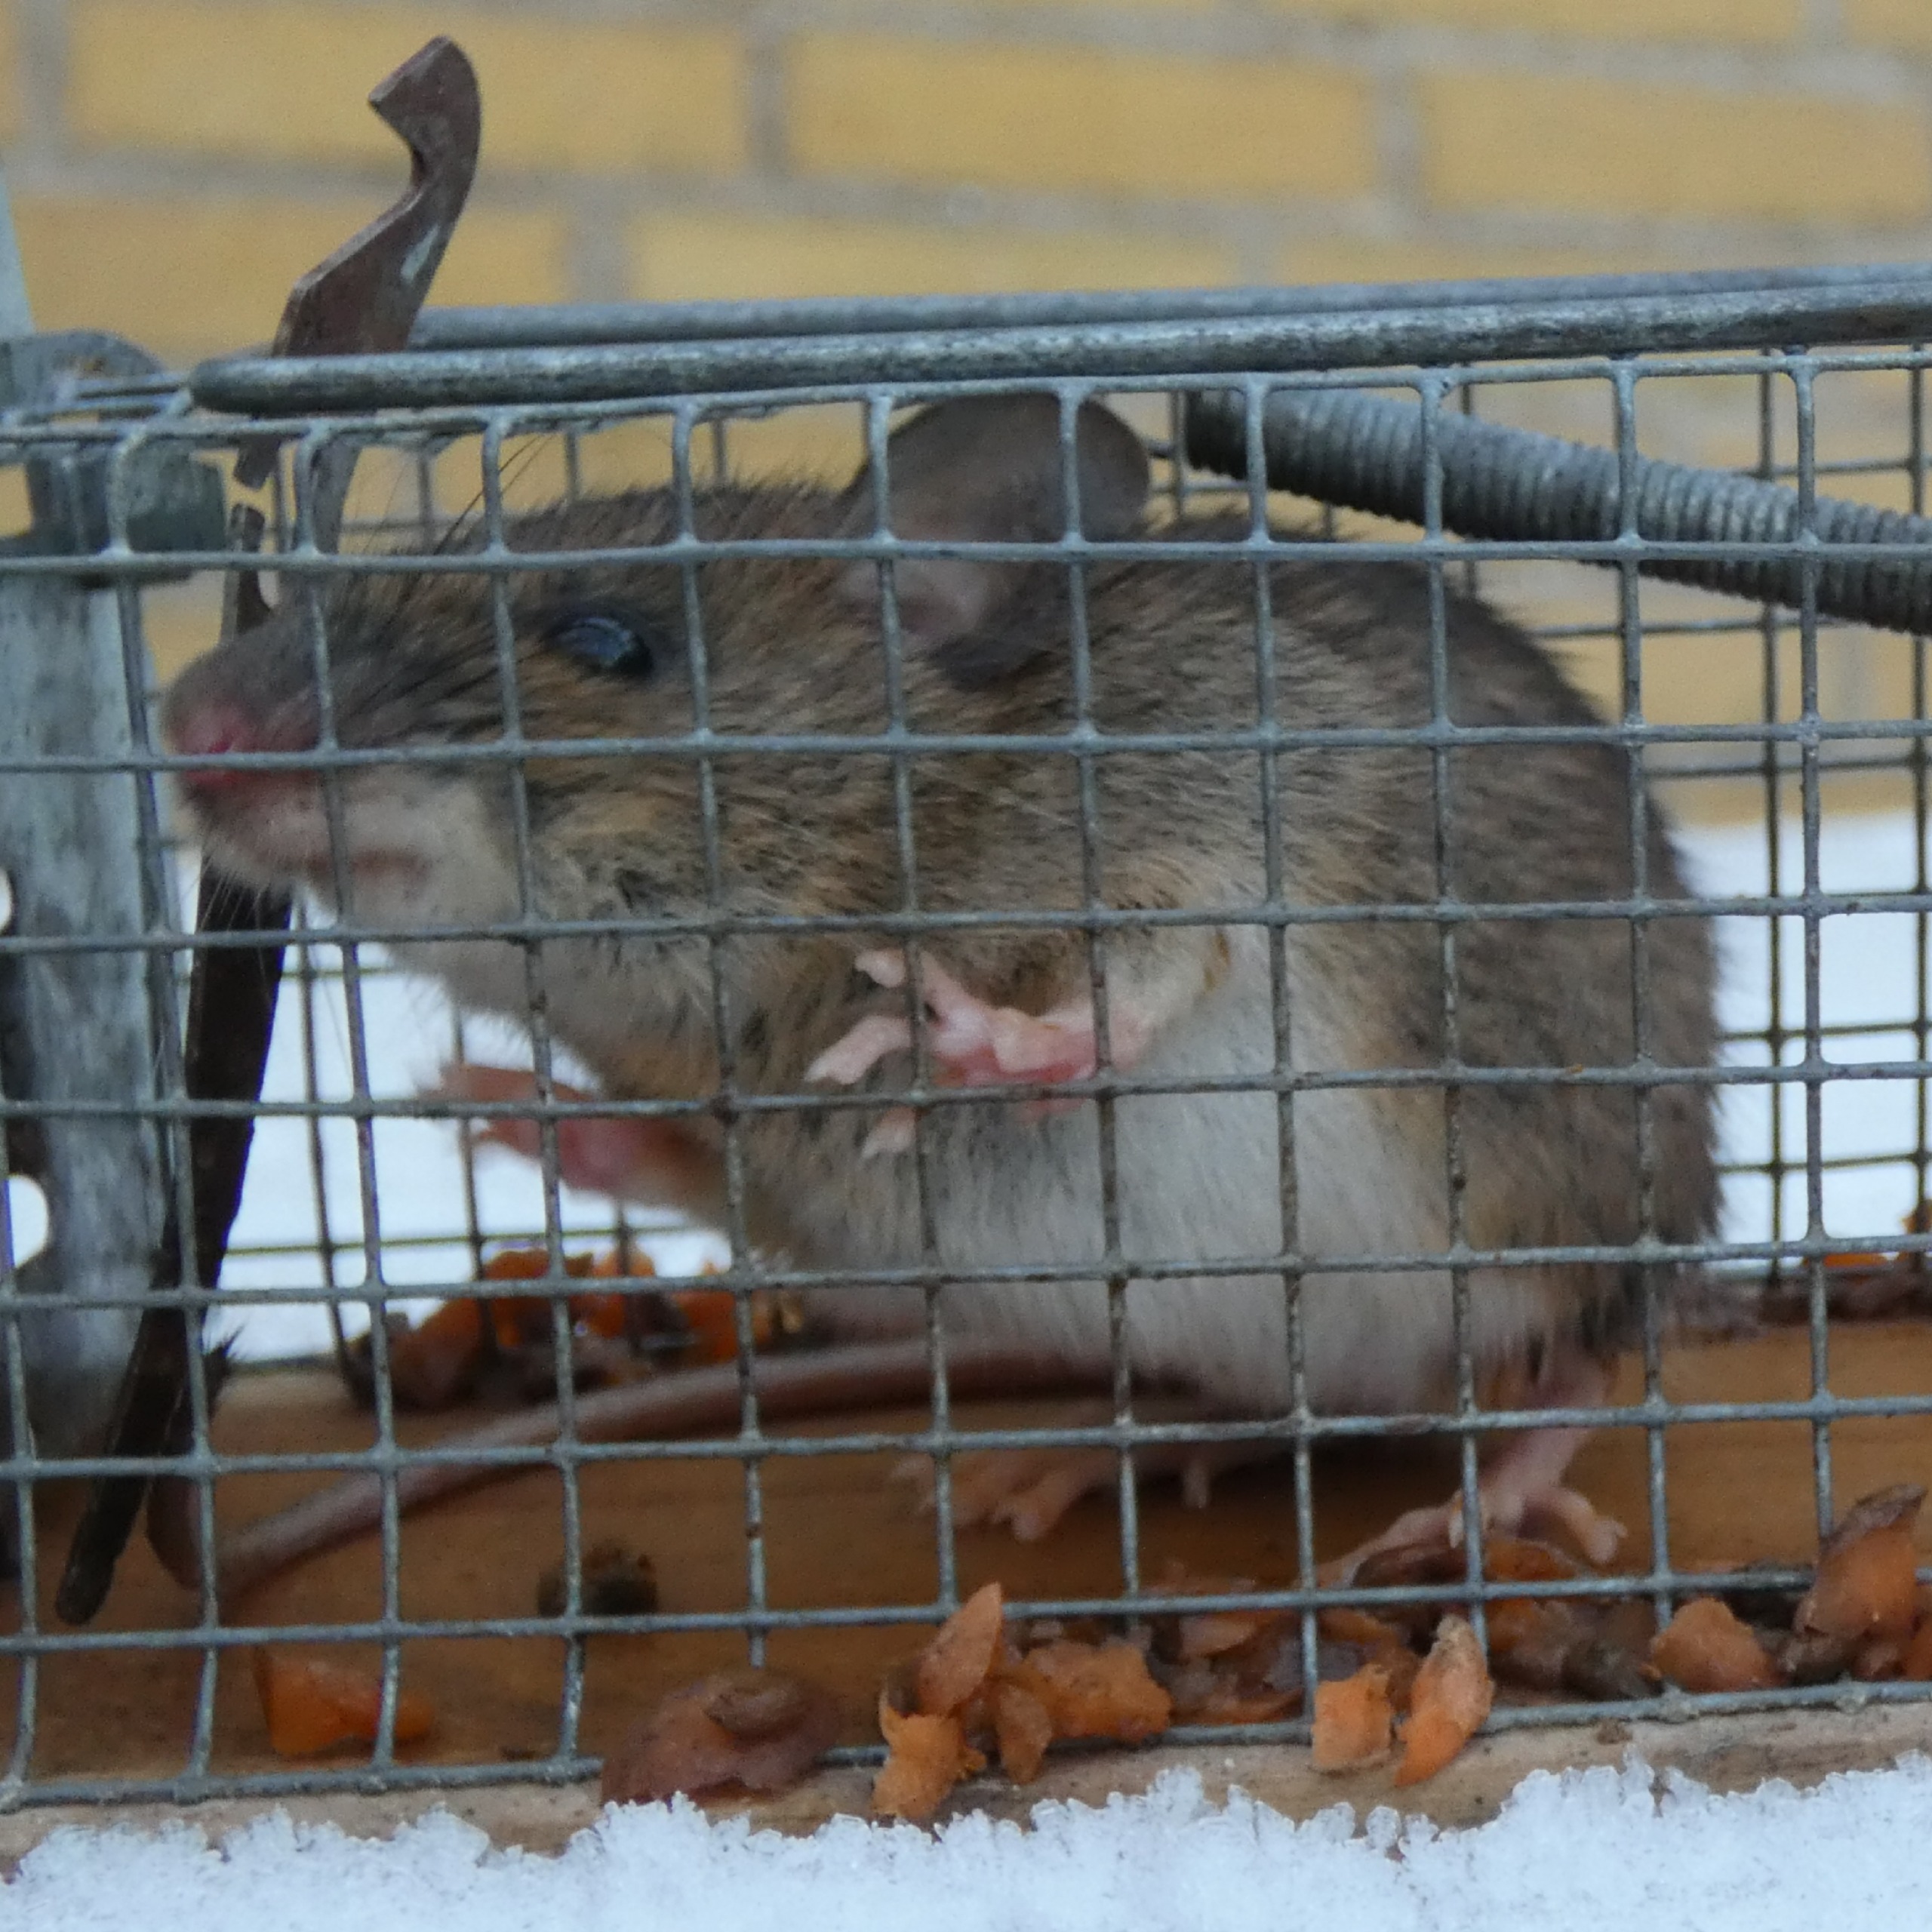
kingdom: Animalia
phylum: Chordata
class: Mammalia
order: Rodentia
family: Muridae
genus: Apodemus
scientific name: Apodemus flavicollis
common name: Halsbåndmus
